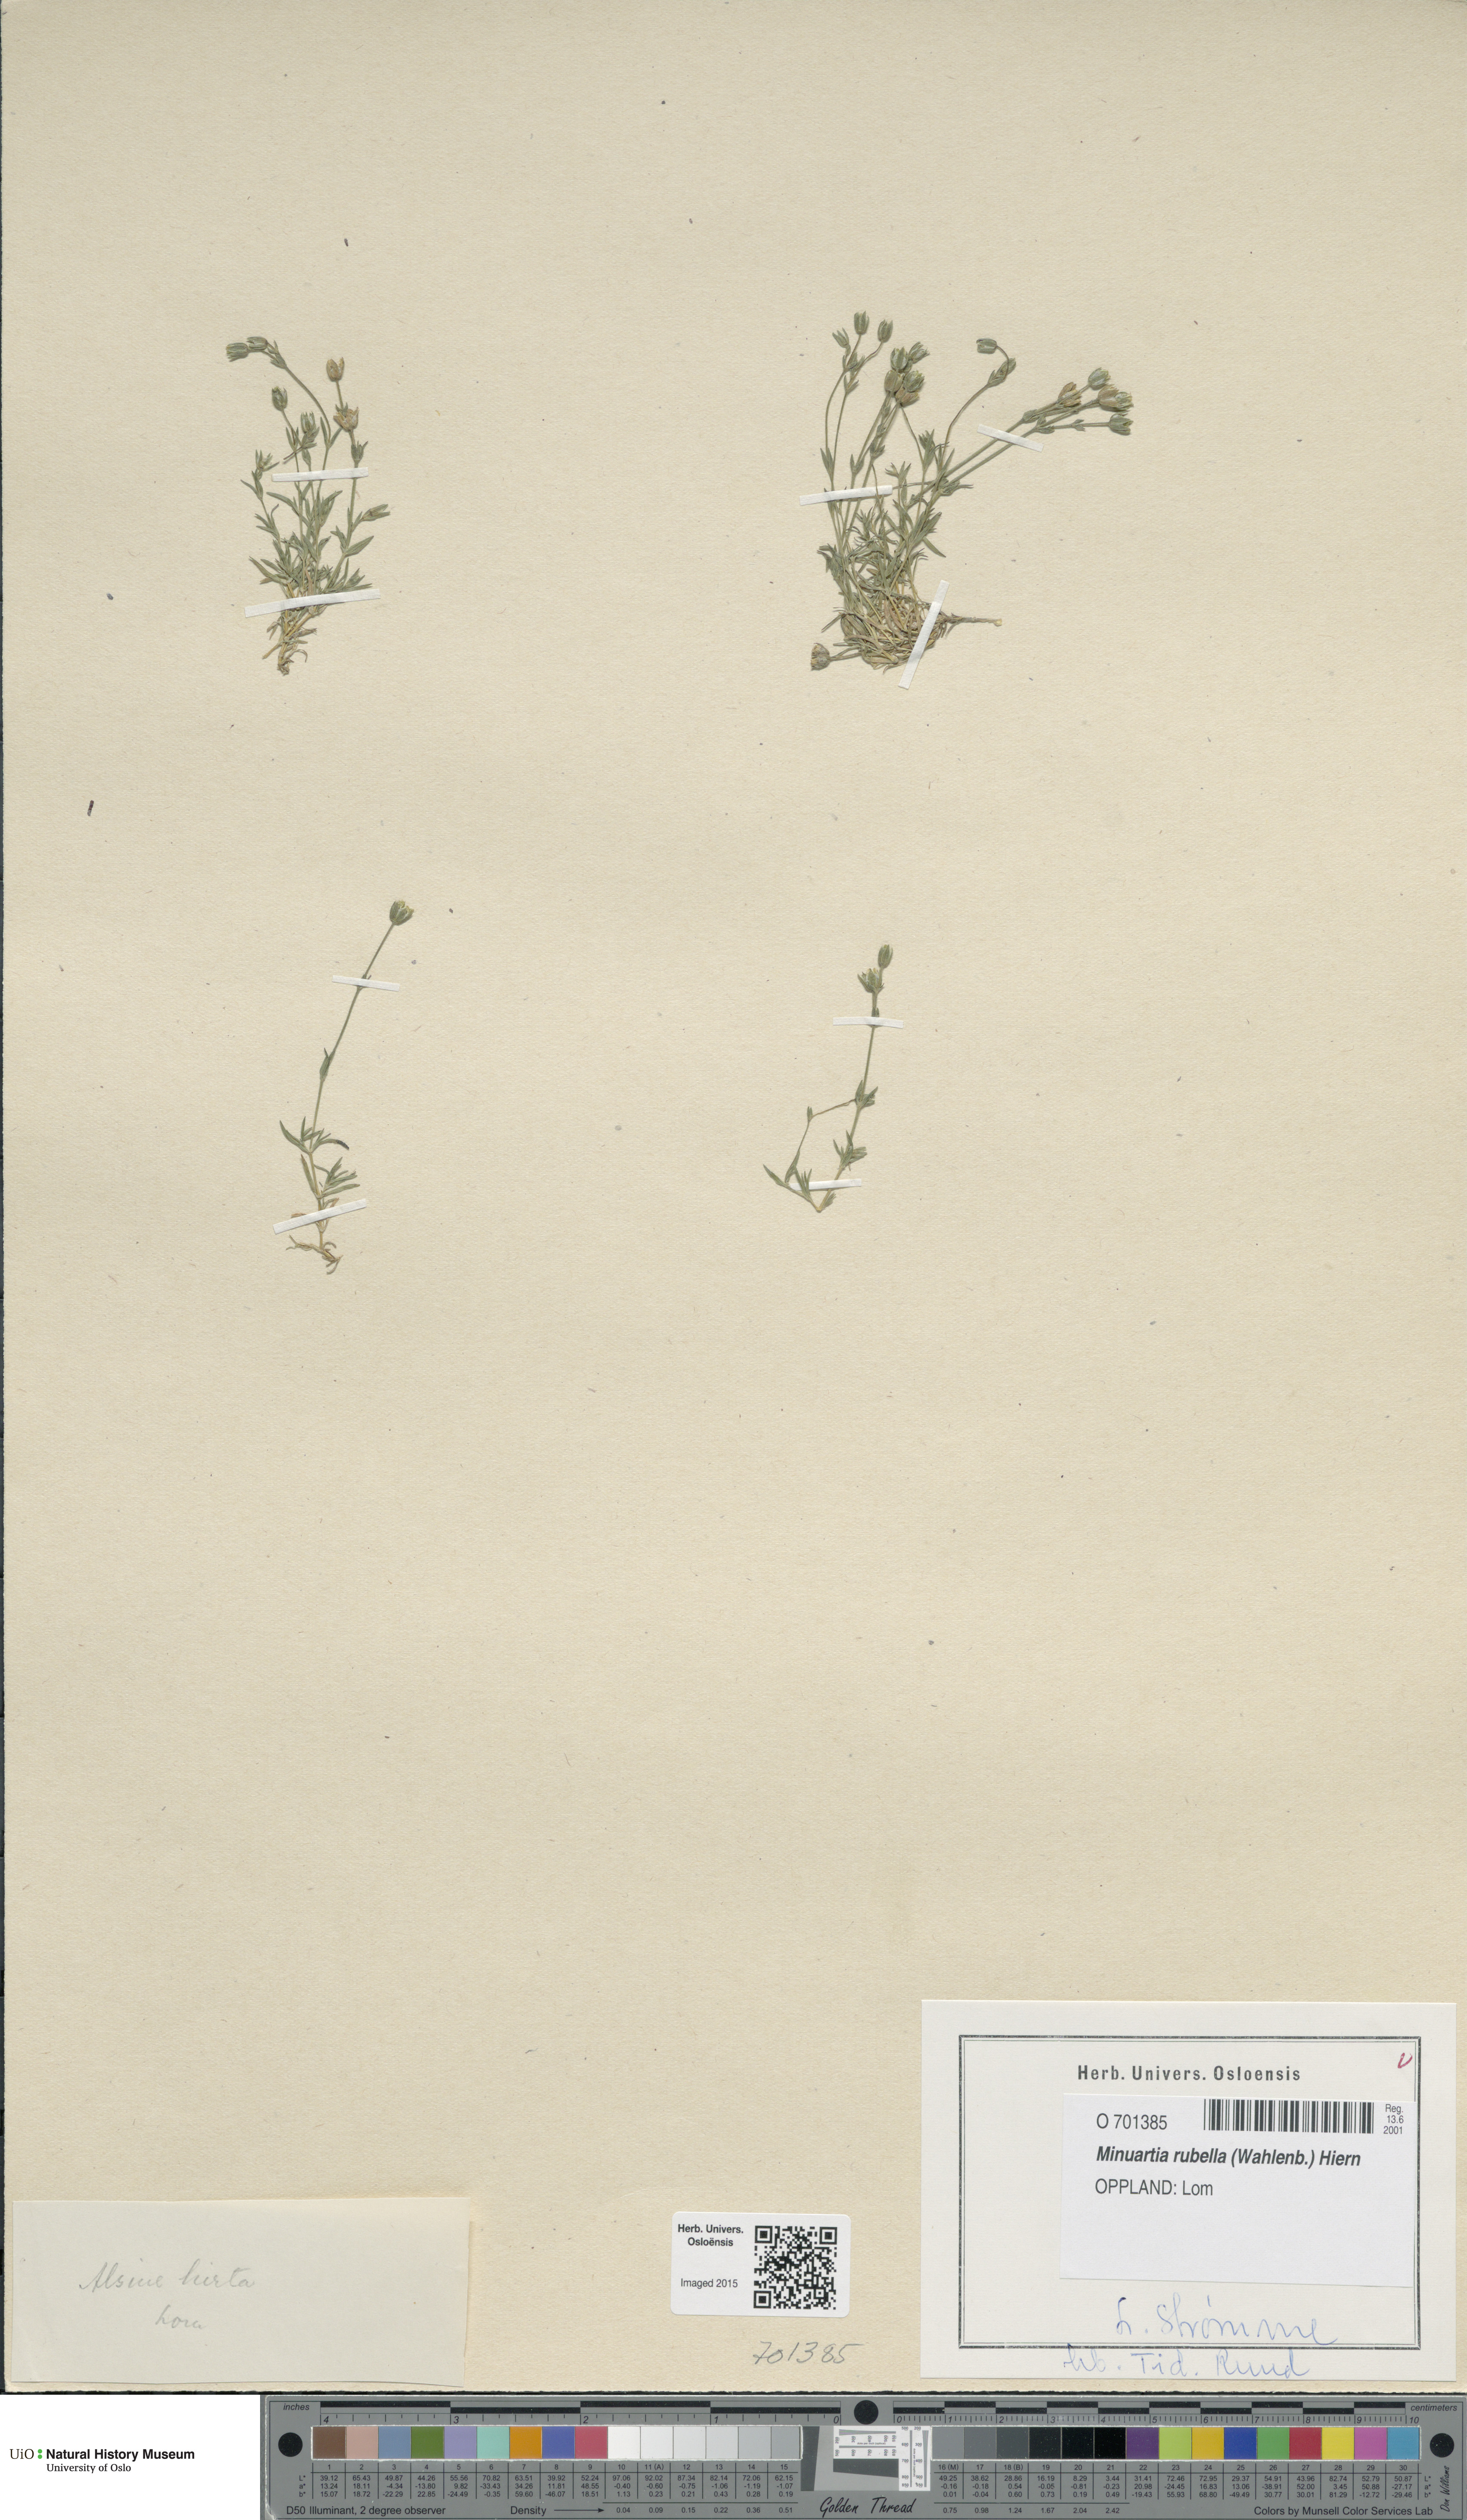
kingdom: Plantae
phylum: Tracheophyta
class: Magnoliopsida
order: Caryophyllales
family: Caryophyllaceae
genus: Sabulina
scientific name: Sabulina rubella
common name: Beautiful sandwort
